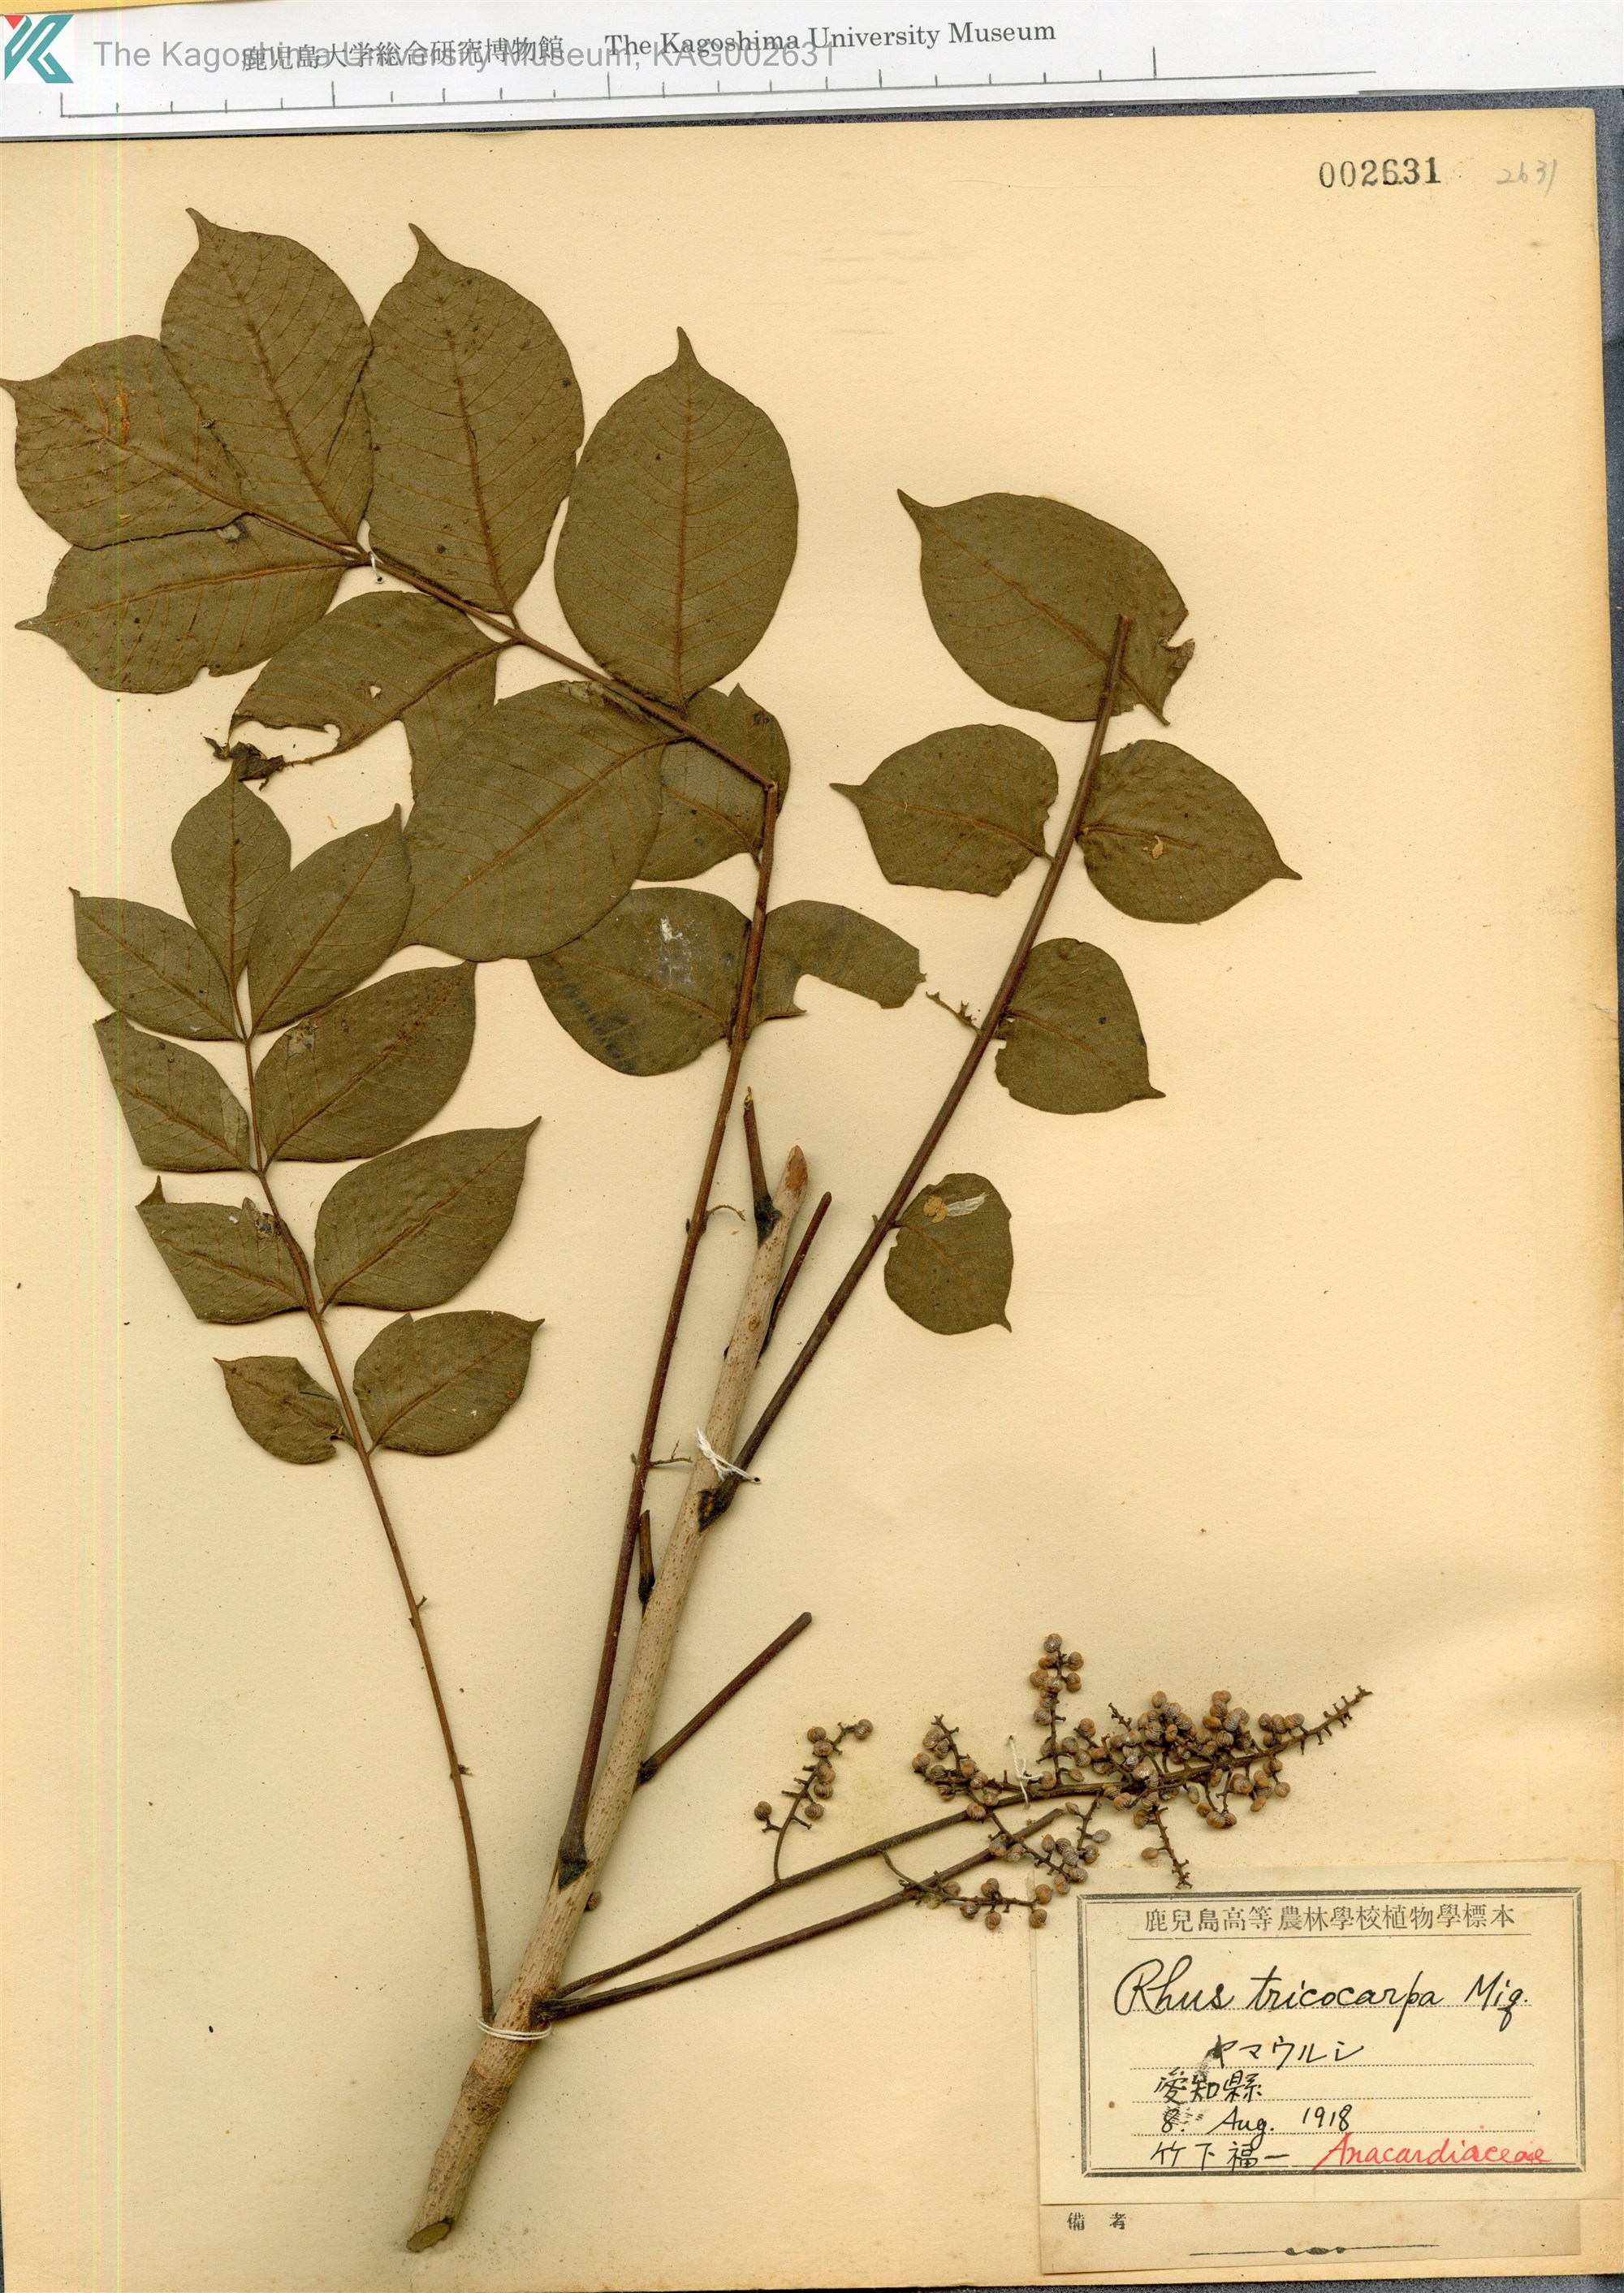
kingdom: Plantae
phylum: Tracheophyta
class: Magnoliopsida
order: Sapindales
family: Anacardiaceae
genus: Toxicodendron
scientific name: Toxicodendron trichocarpum
